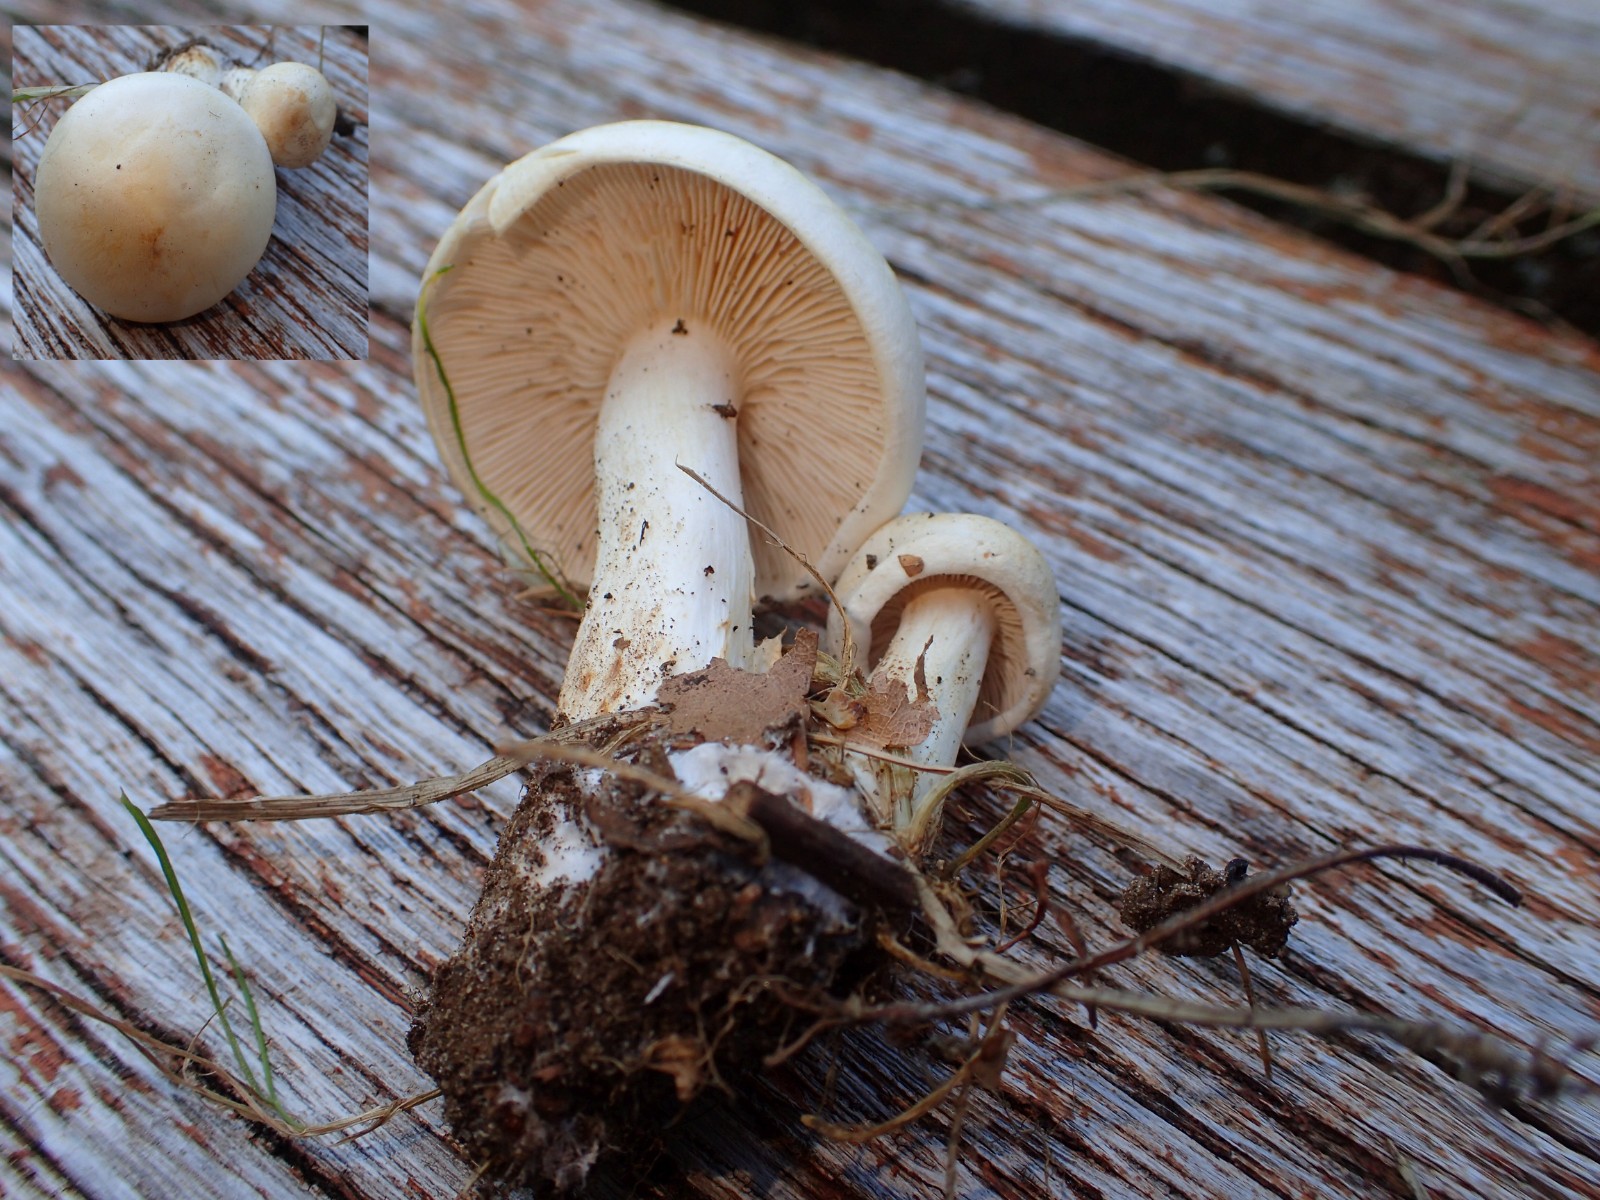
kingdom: Fungi
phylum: Basidiomycota
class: Agaricomycetes
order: Agaricales
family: Tricholomataceae
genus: Tricholoma
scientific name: Tricholoma stiparophyllum
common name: hvid ridderhat
